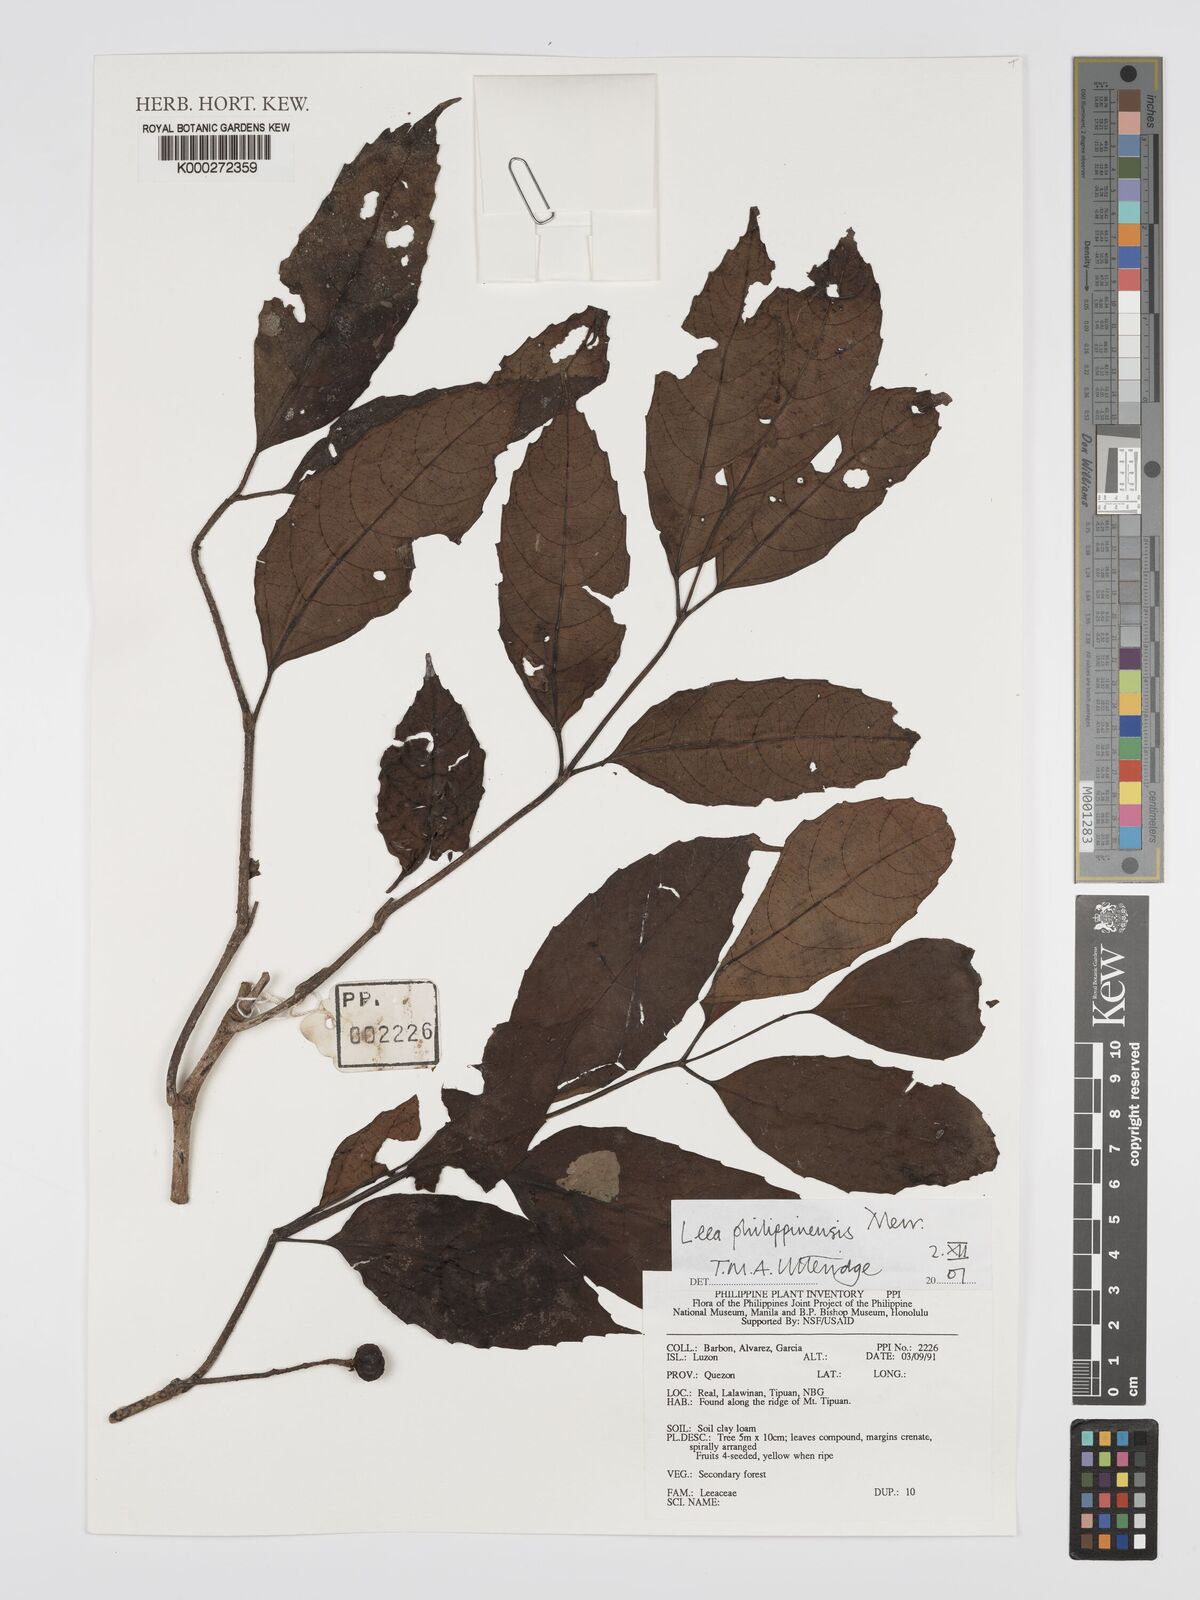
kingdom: Plantae
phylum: Tracheophyta
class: Magnoliopsida
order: Vitales
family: Vitaceae
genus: Leea
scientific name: Leea philippinensis
